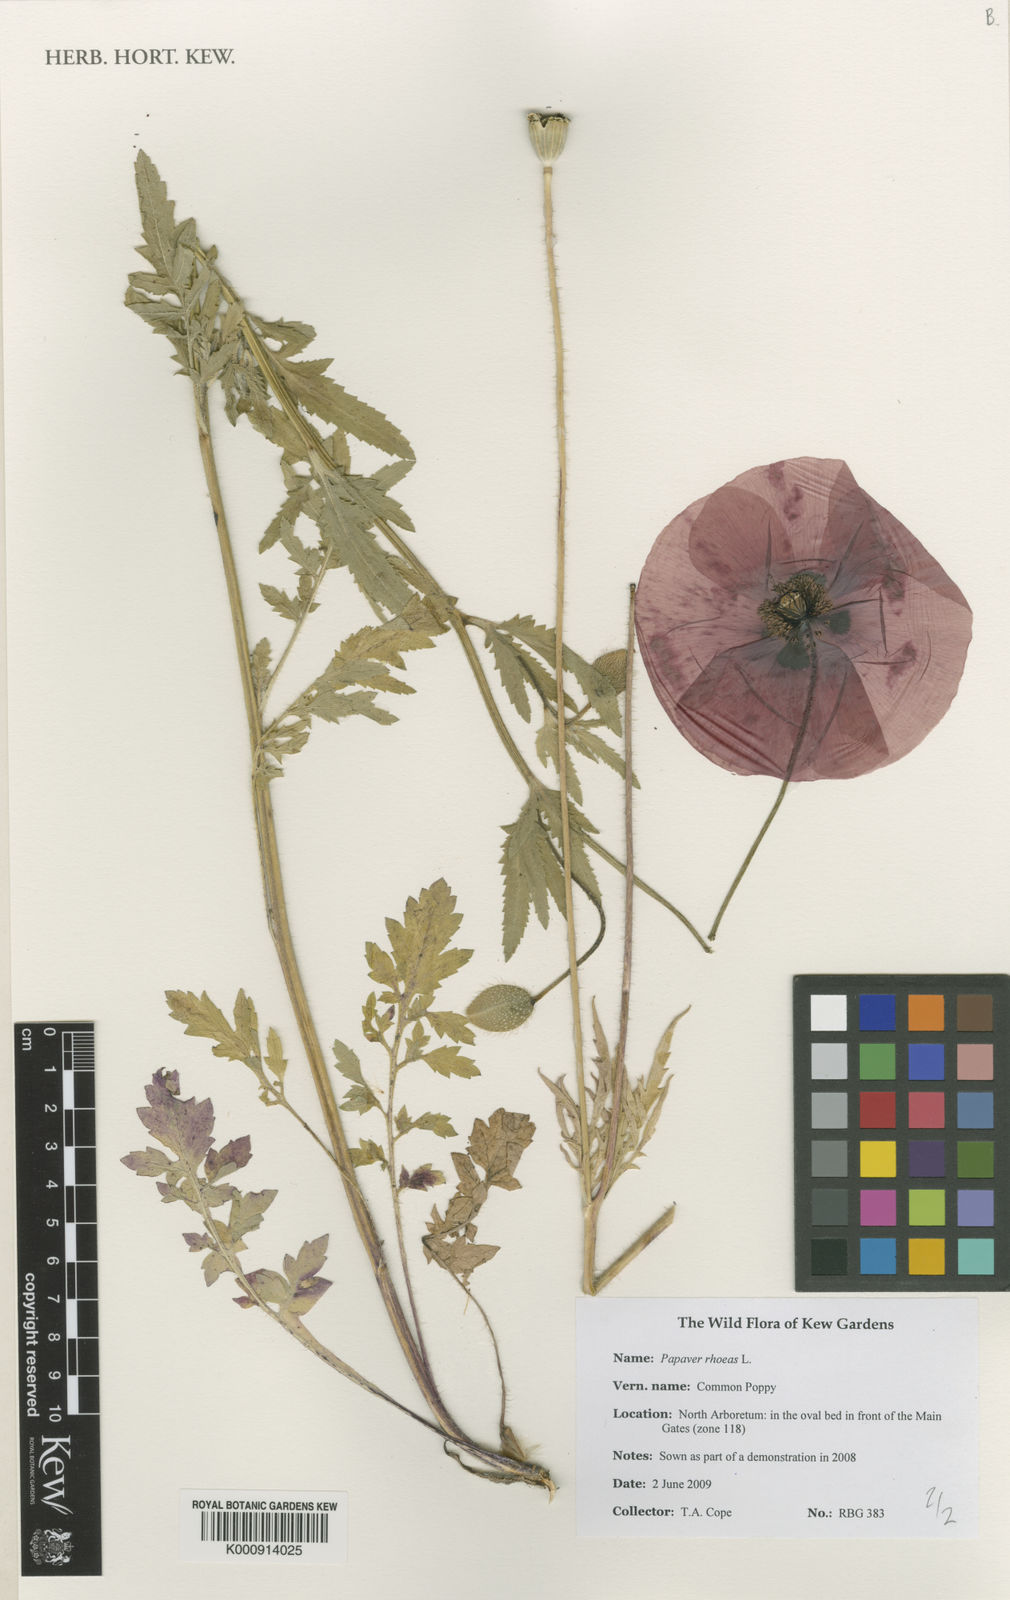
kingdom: Plantae
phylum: Tracheophyta
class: Magnoliopsida
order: Ranunculales
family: Papaveraceae
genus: Papaver
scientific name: Papaver rhoeas
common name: Corn poppy
